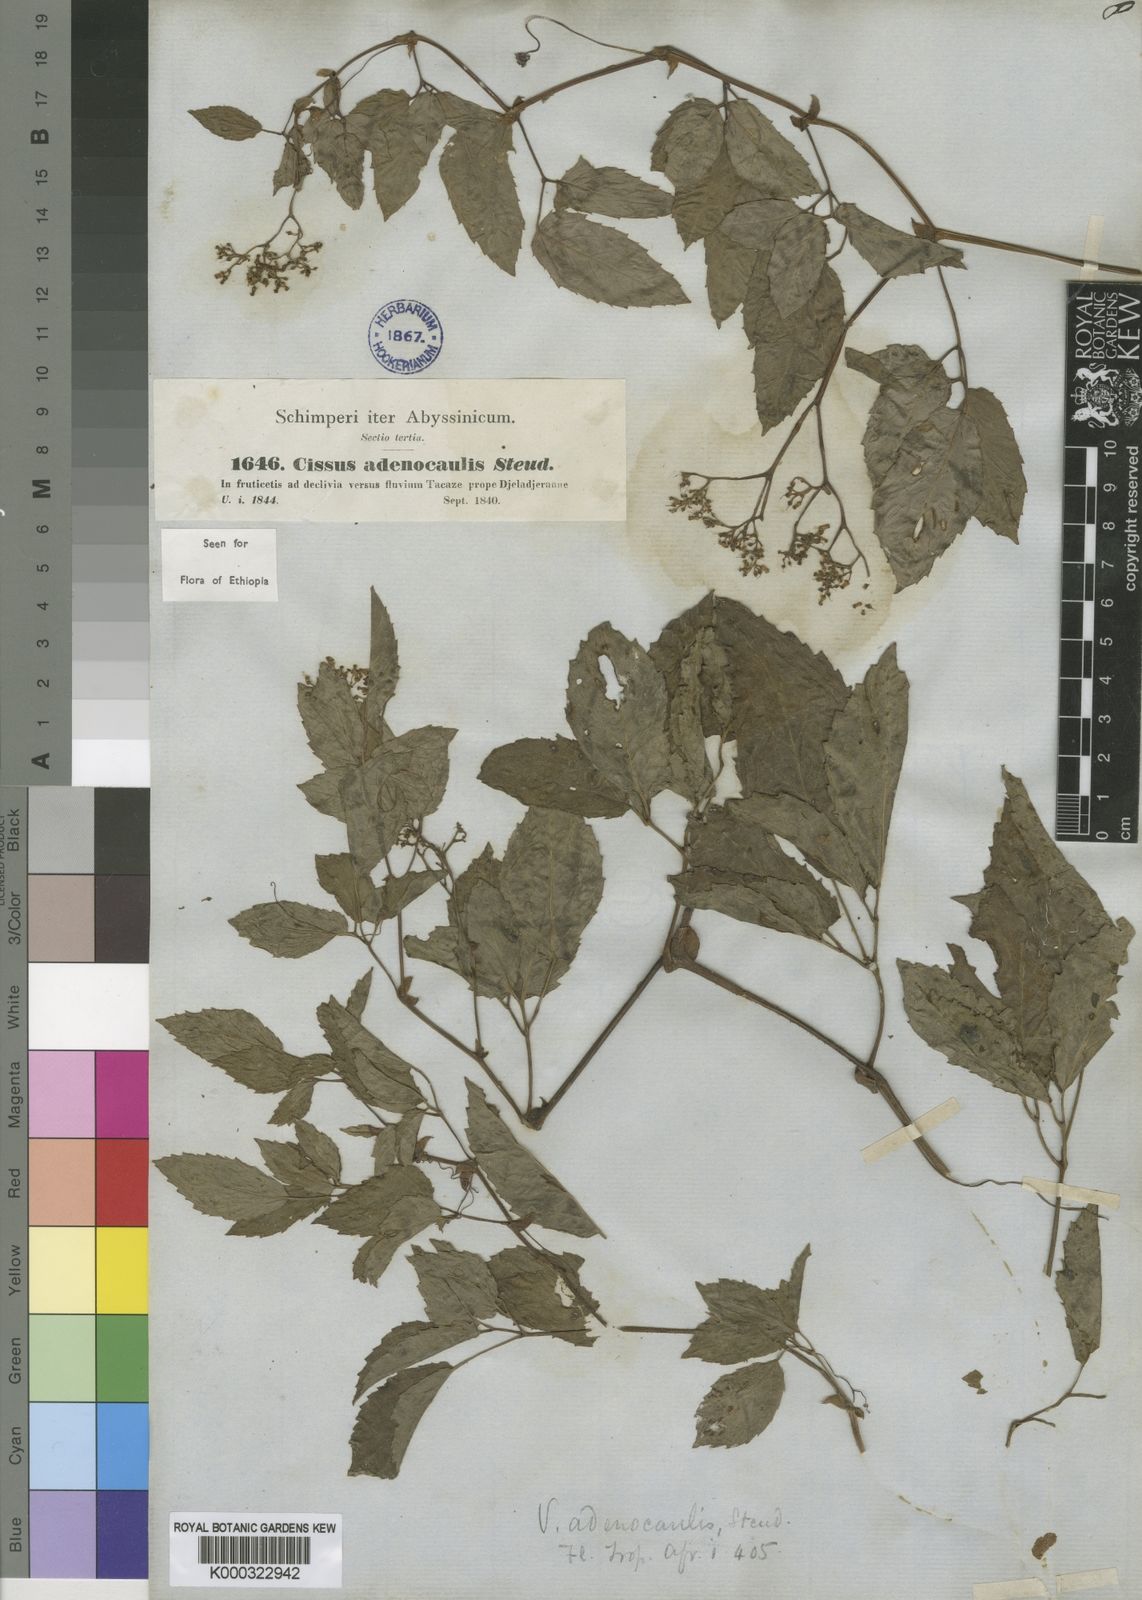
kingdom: Plantae
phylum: Tracheophyta
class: Magnoliopsida
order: Vitales
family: Vitaceae
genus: Cyphostemma
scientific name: Cyphostemma
